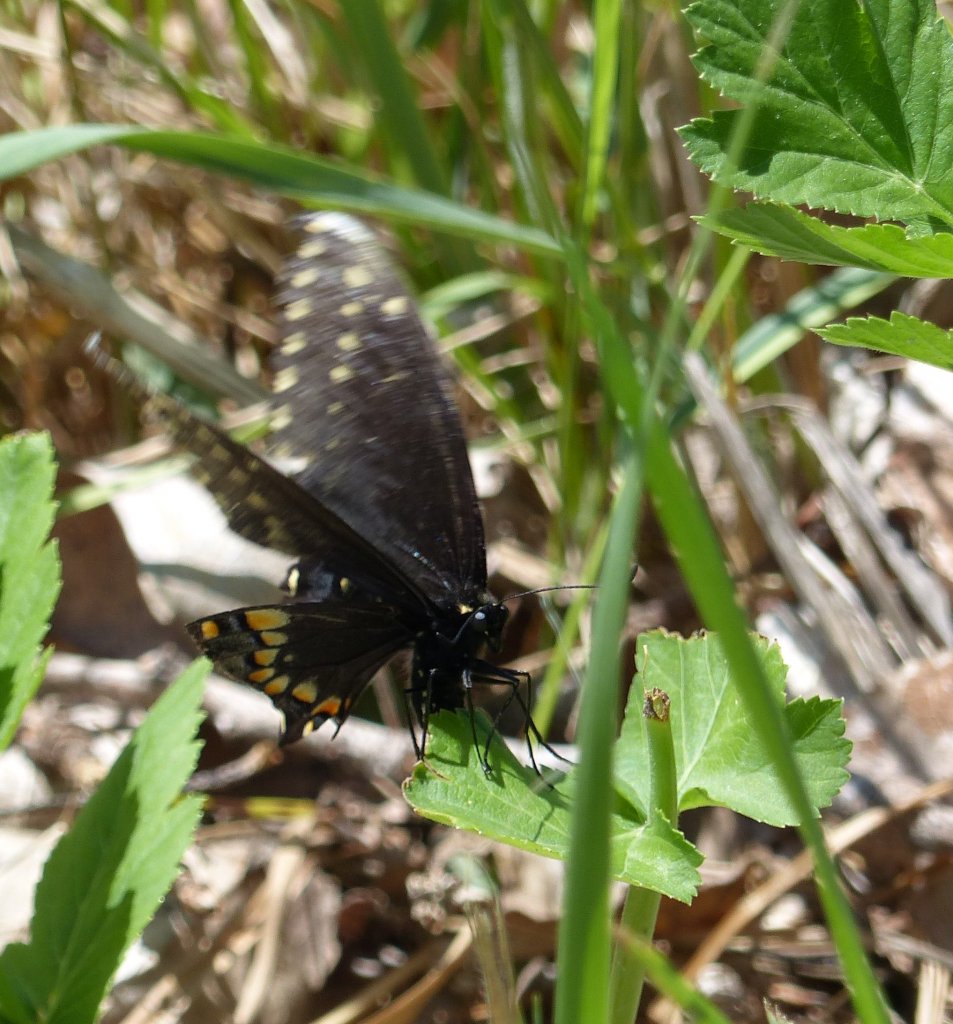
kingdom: Animalia
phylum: Arthropoda
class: Insecta
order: Lepidoptera
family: Papilionidae
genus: Papilio
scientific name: Papilio polyxenes
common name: Black Swallowtail
